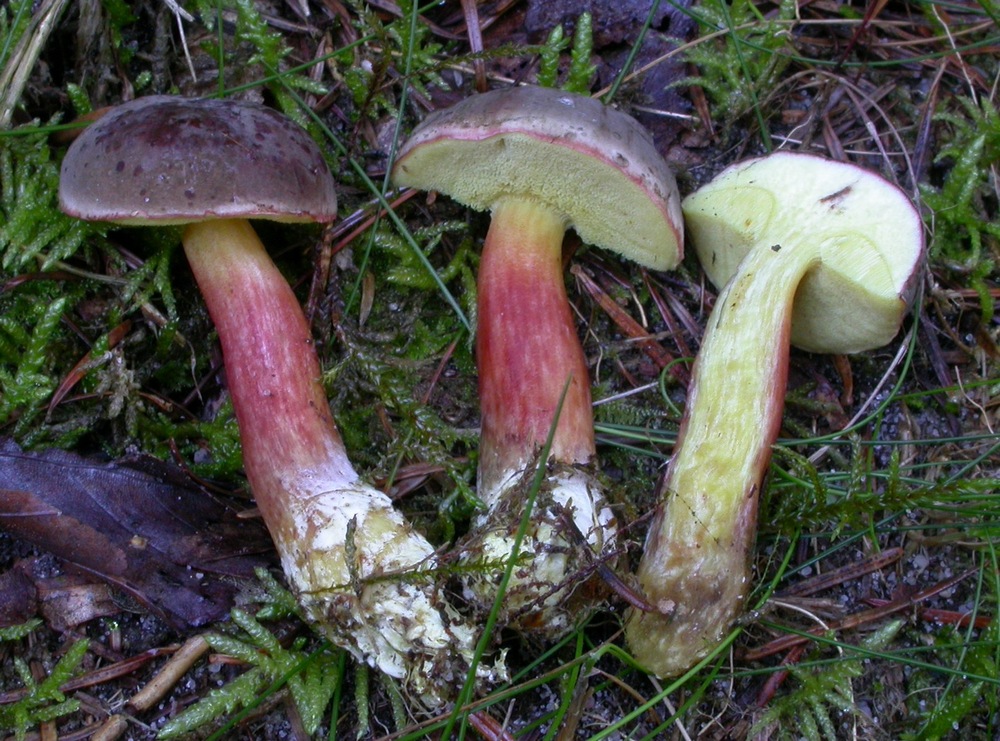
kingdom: Fungi
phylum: Basidiomycota
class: Agaricomycetes
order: Boletales
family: Boletaceae
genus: Xerocomellus
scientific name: Xerocomellus pruinatus
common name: dugget rørhat
